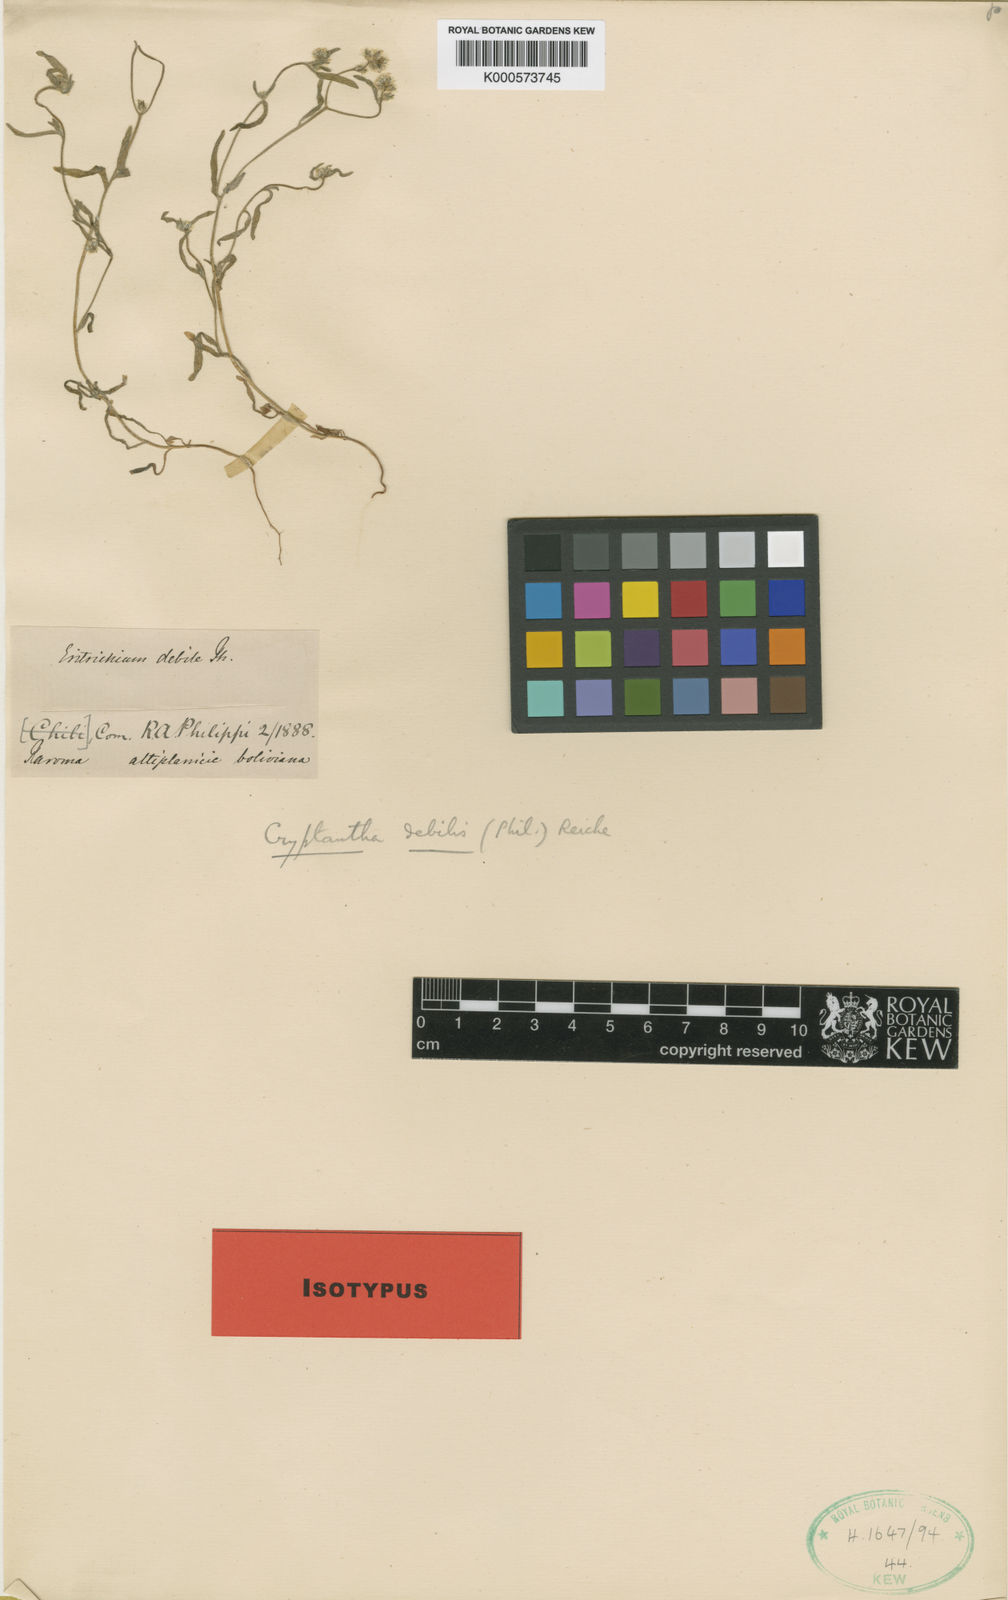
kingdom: Plantae
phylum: Tracheophyta
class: Magnoliopsida
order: Boraginales
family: Boraginaceae
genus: Cryptantha
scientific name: Cryptantha
